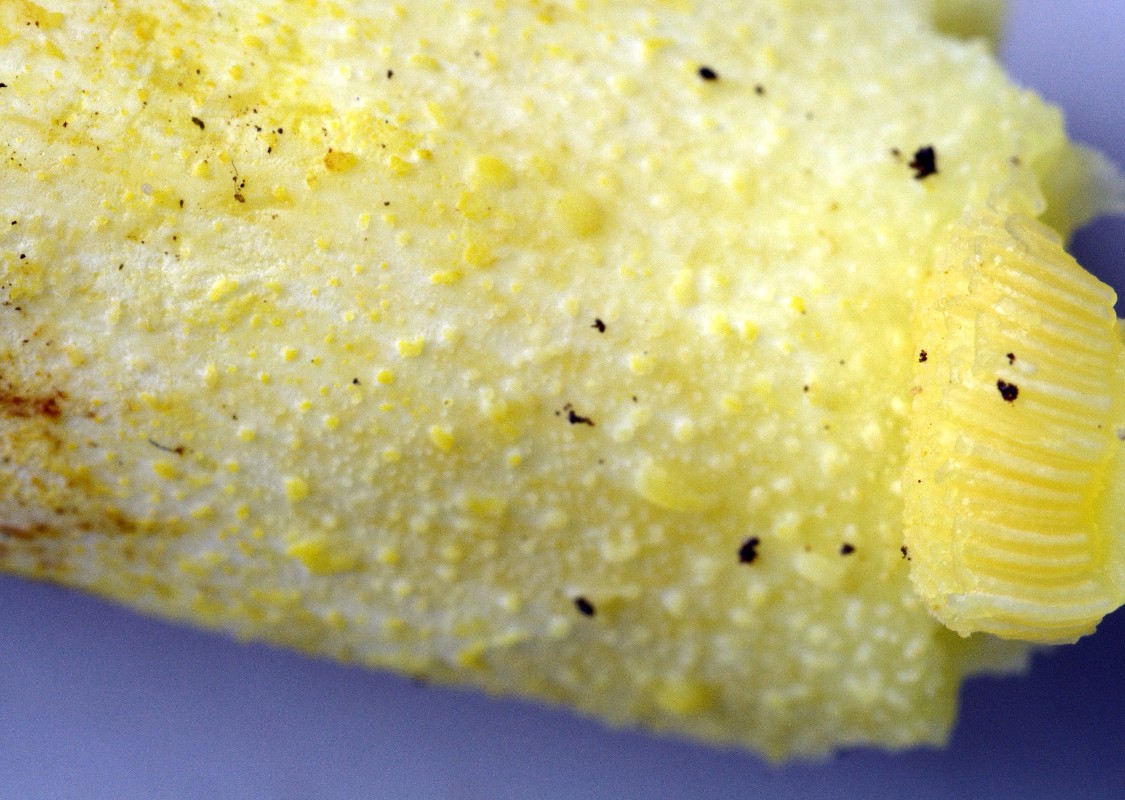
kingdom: Fungi
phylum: Basidiomycota
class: Agaricomycetes
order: Boletales
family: Suillaceae
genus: Suillus
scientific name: Suillus granulatus
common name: kornet slimrørhat
